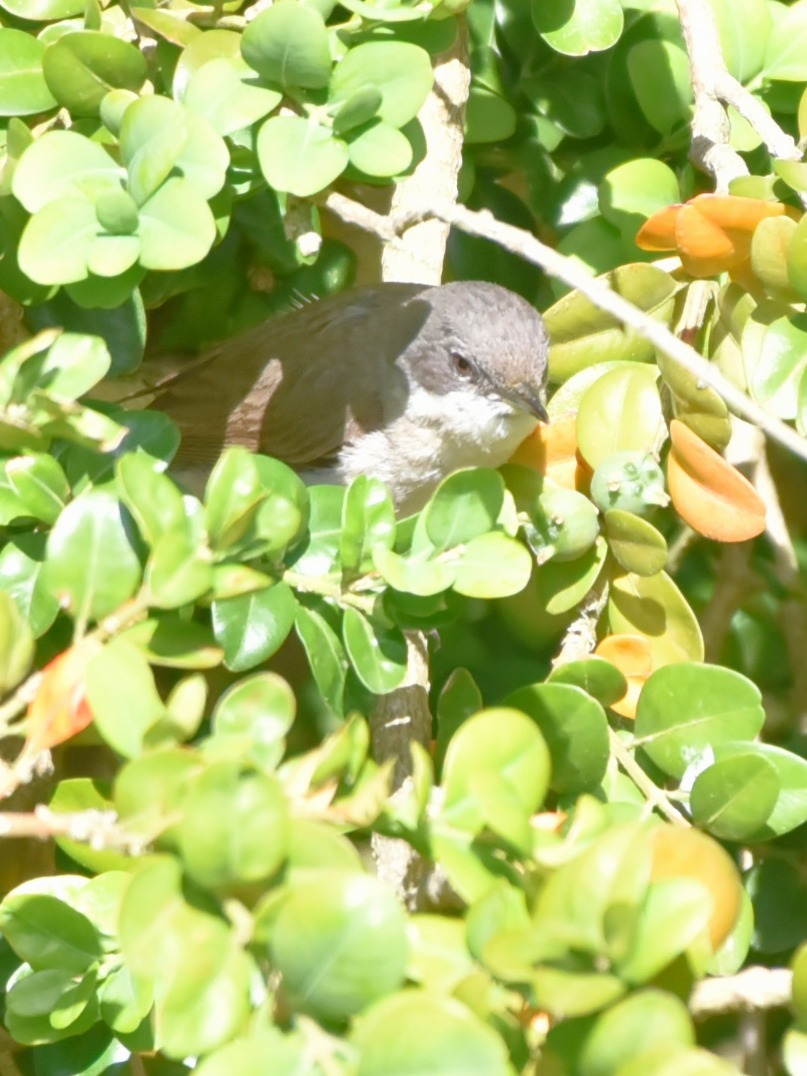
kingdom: Animalia
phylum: Chordata
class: Aves
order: Passeriformes
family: Sylviidae
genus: Sylvia
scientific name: Sylvia curruca
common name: Gærdesanger
